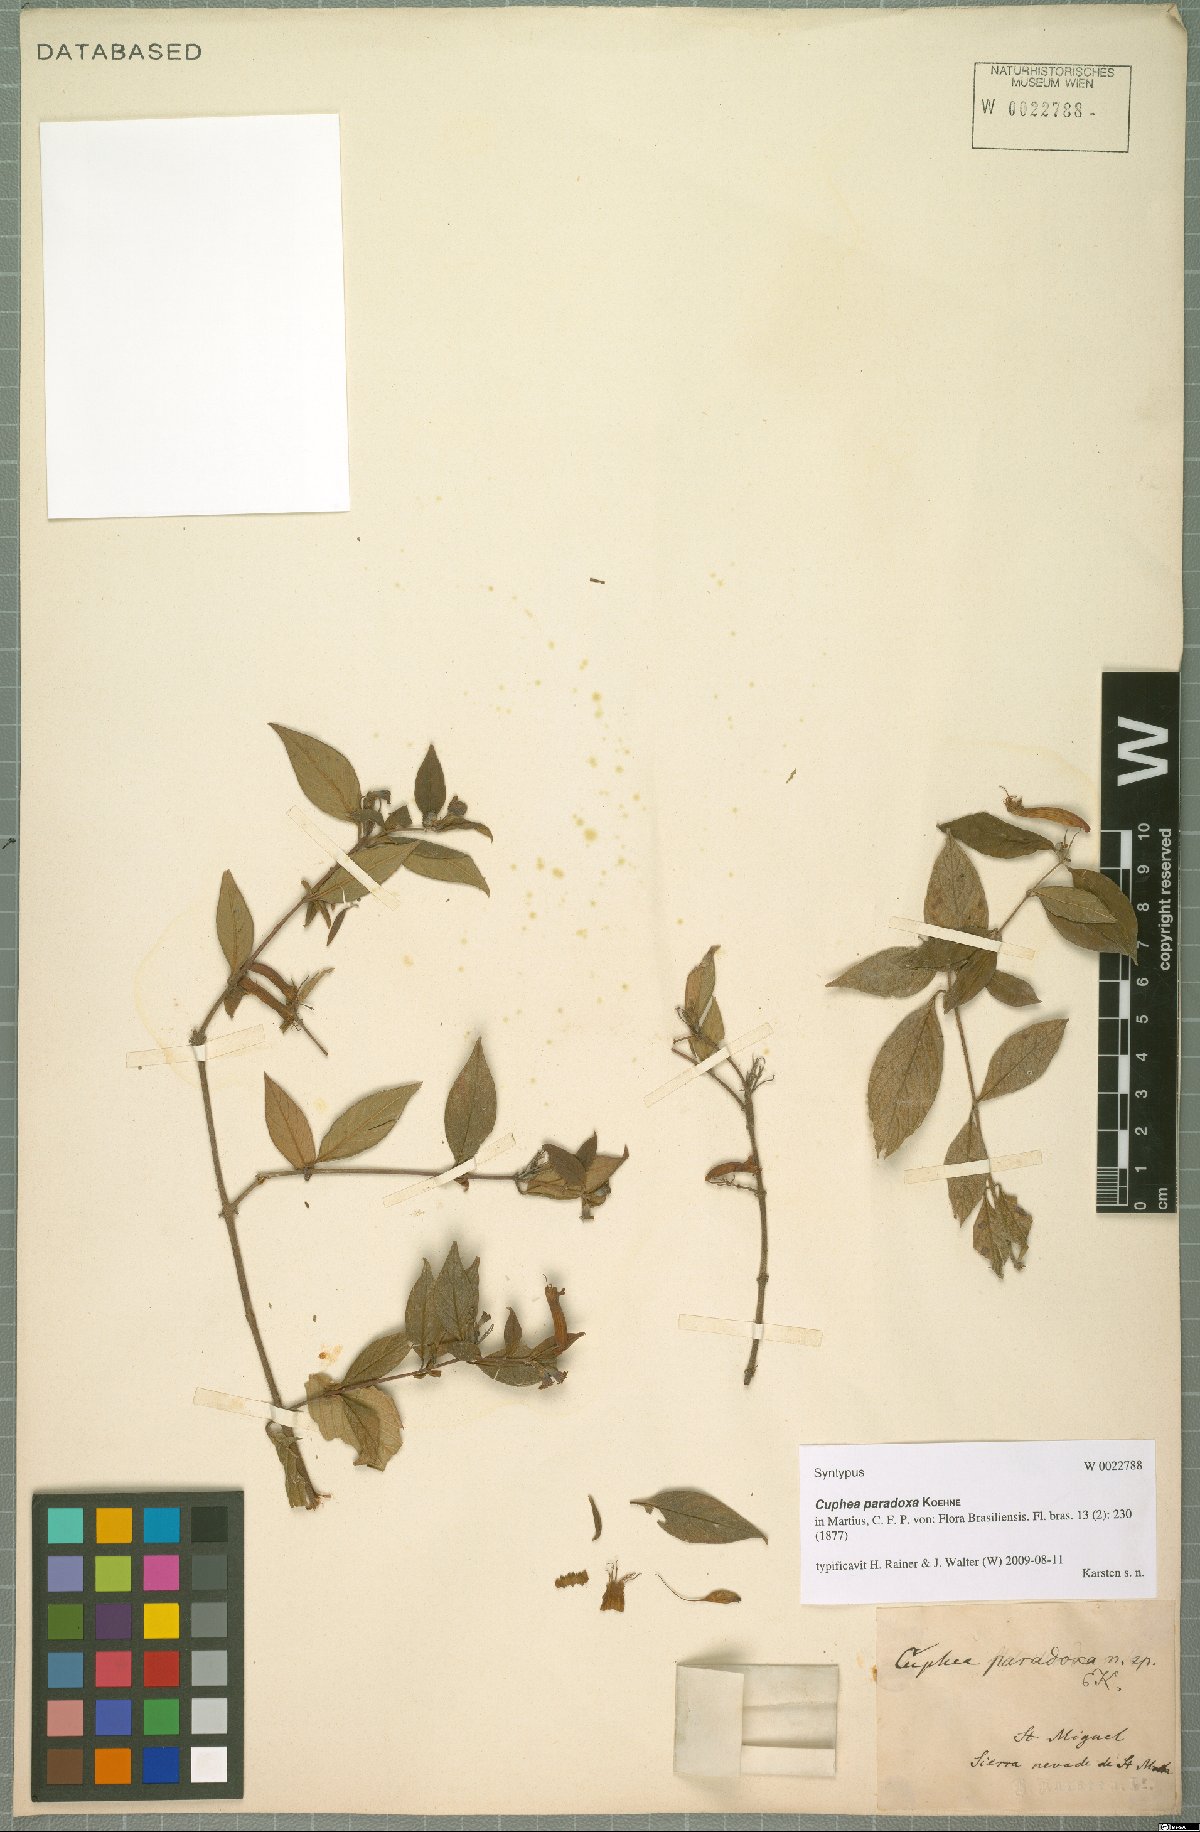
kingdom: Plantae
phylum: Tracheophyta
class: Magnoliopsida
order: Myrtales
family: Lythraceae
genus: Cuphea
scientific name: Cuphea paradoxa
